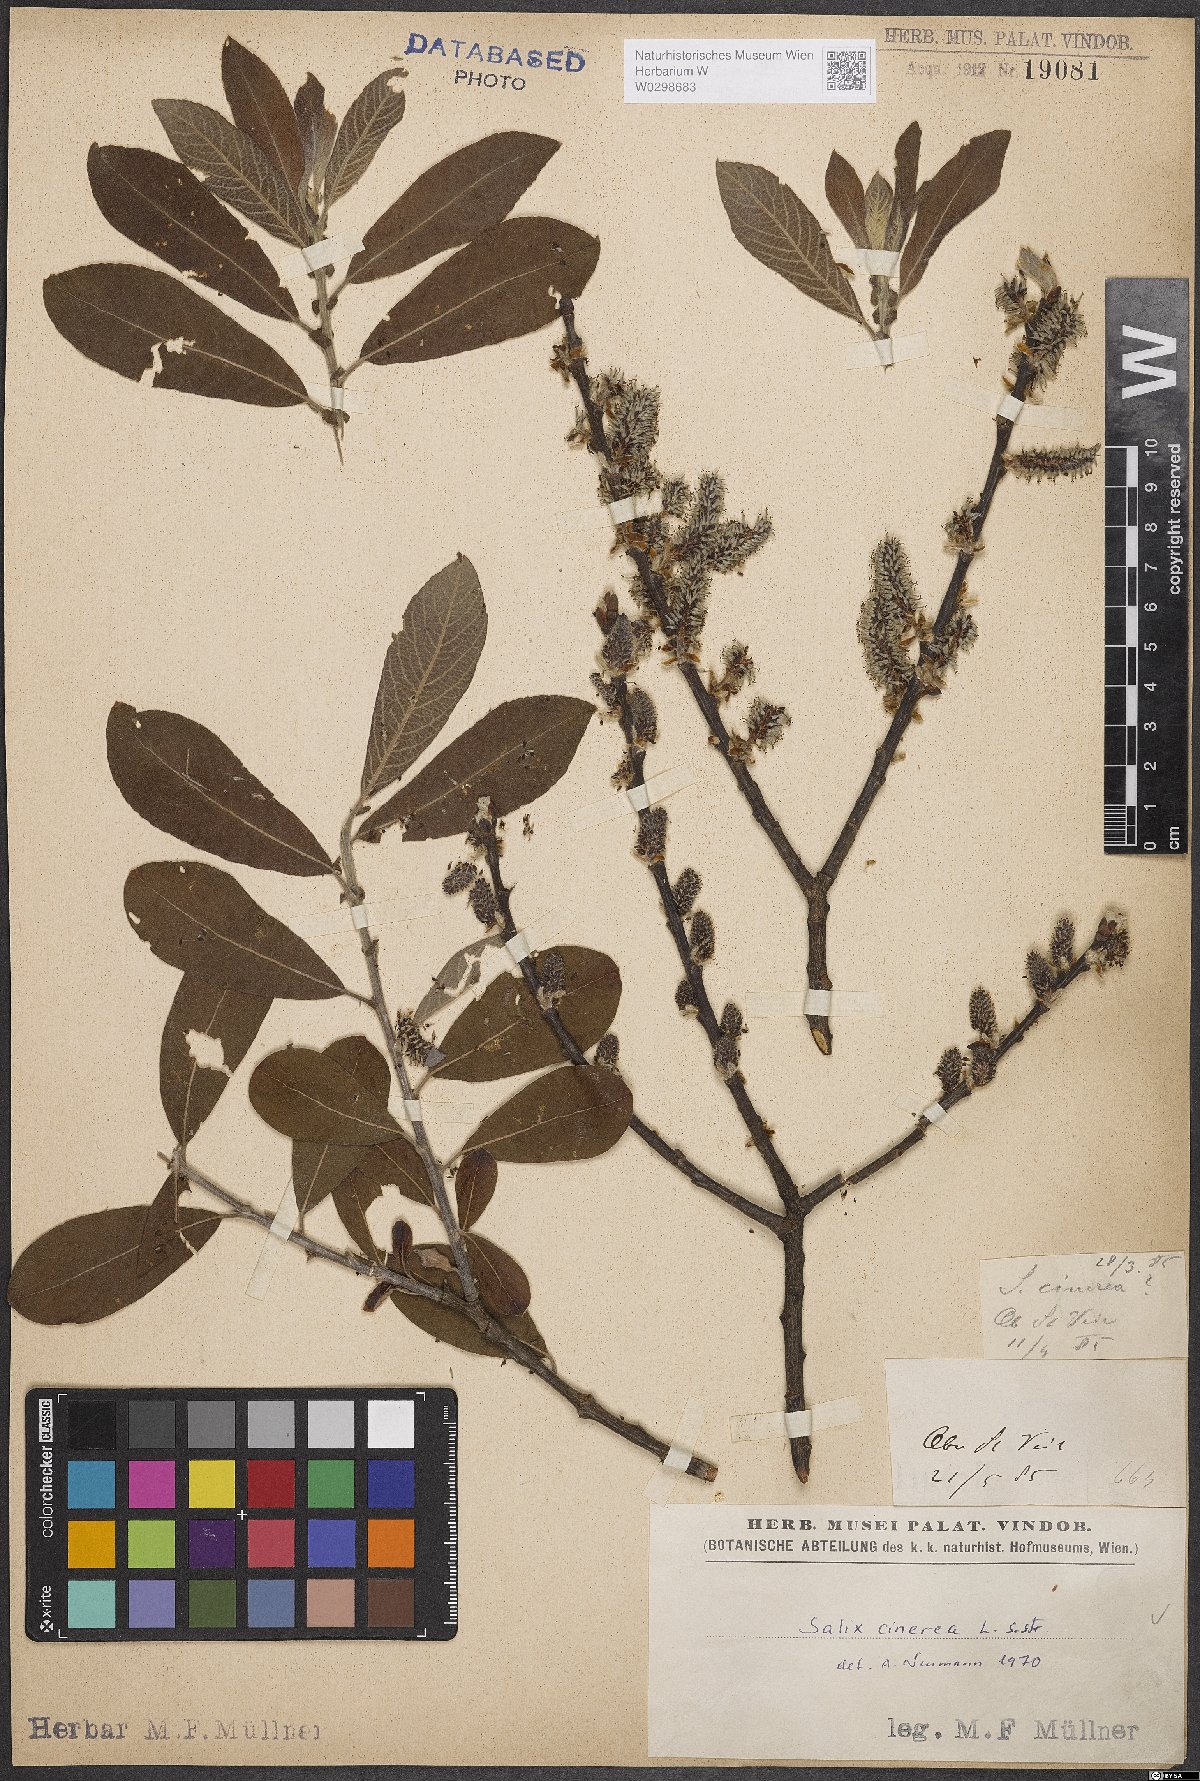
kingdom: Plantae
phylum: Tracheophyta
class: Magnoliopsida
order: Malpighiales
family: Salicaceae
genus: Salix
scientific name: Salix cinerea
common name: Common sallow
